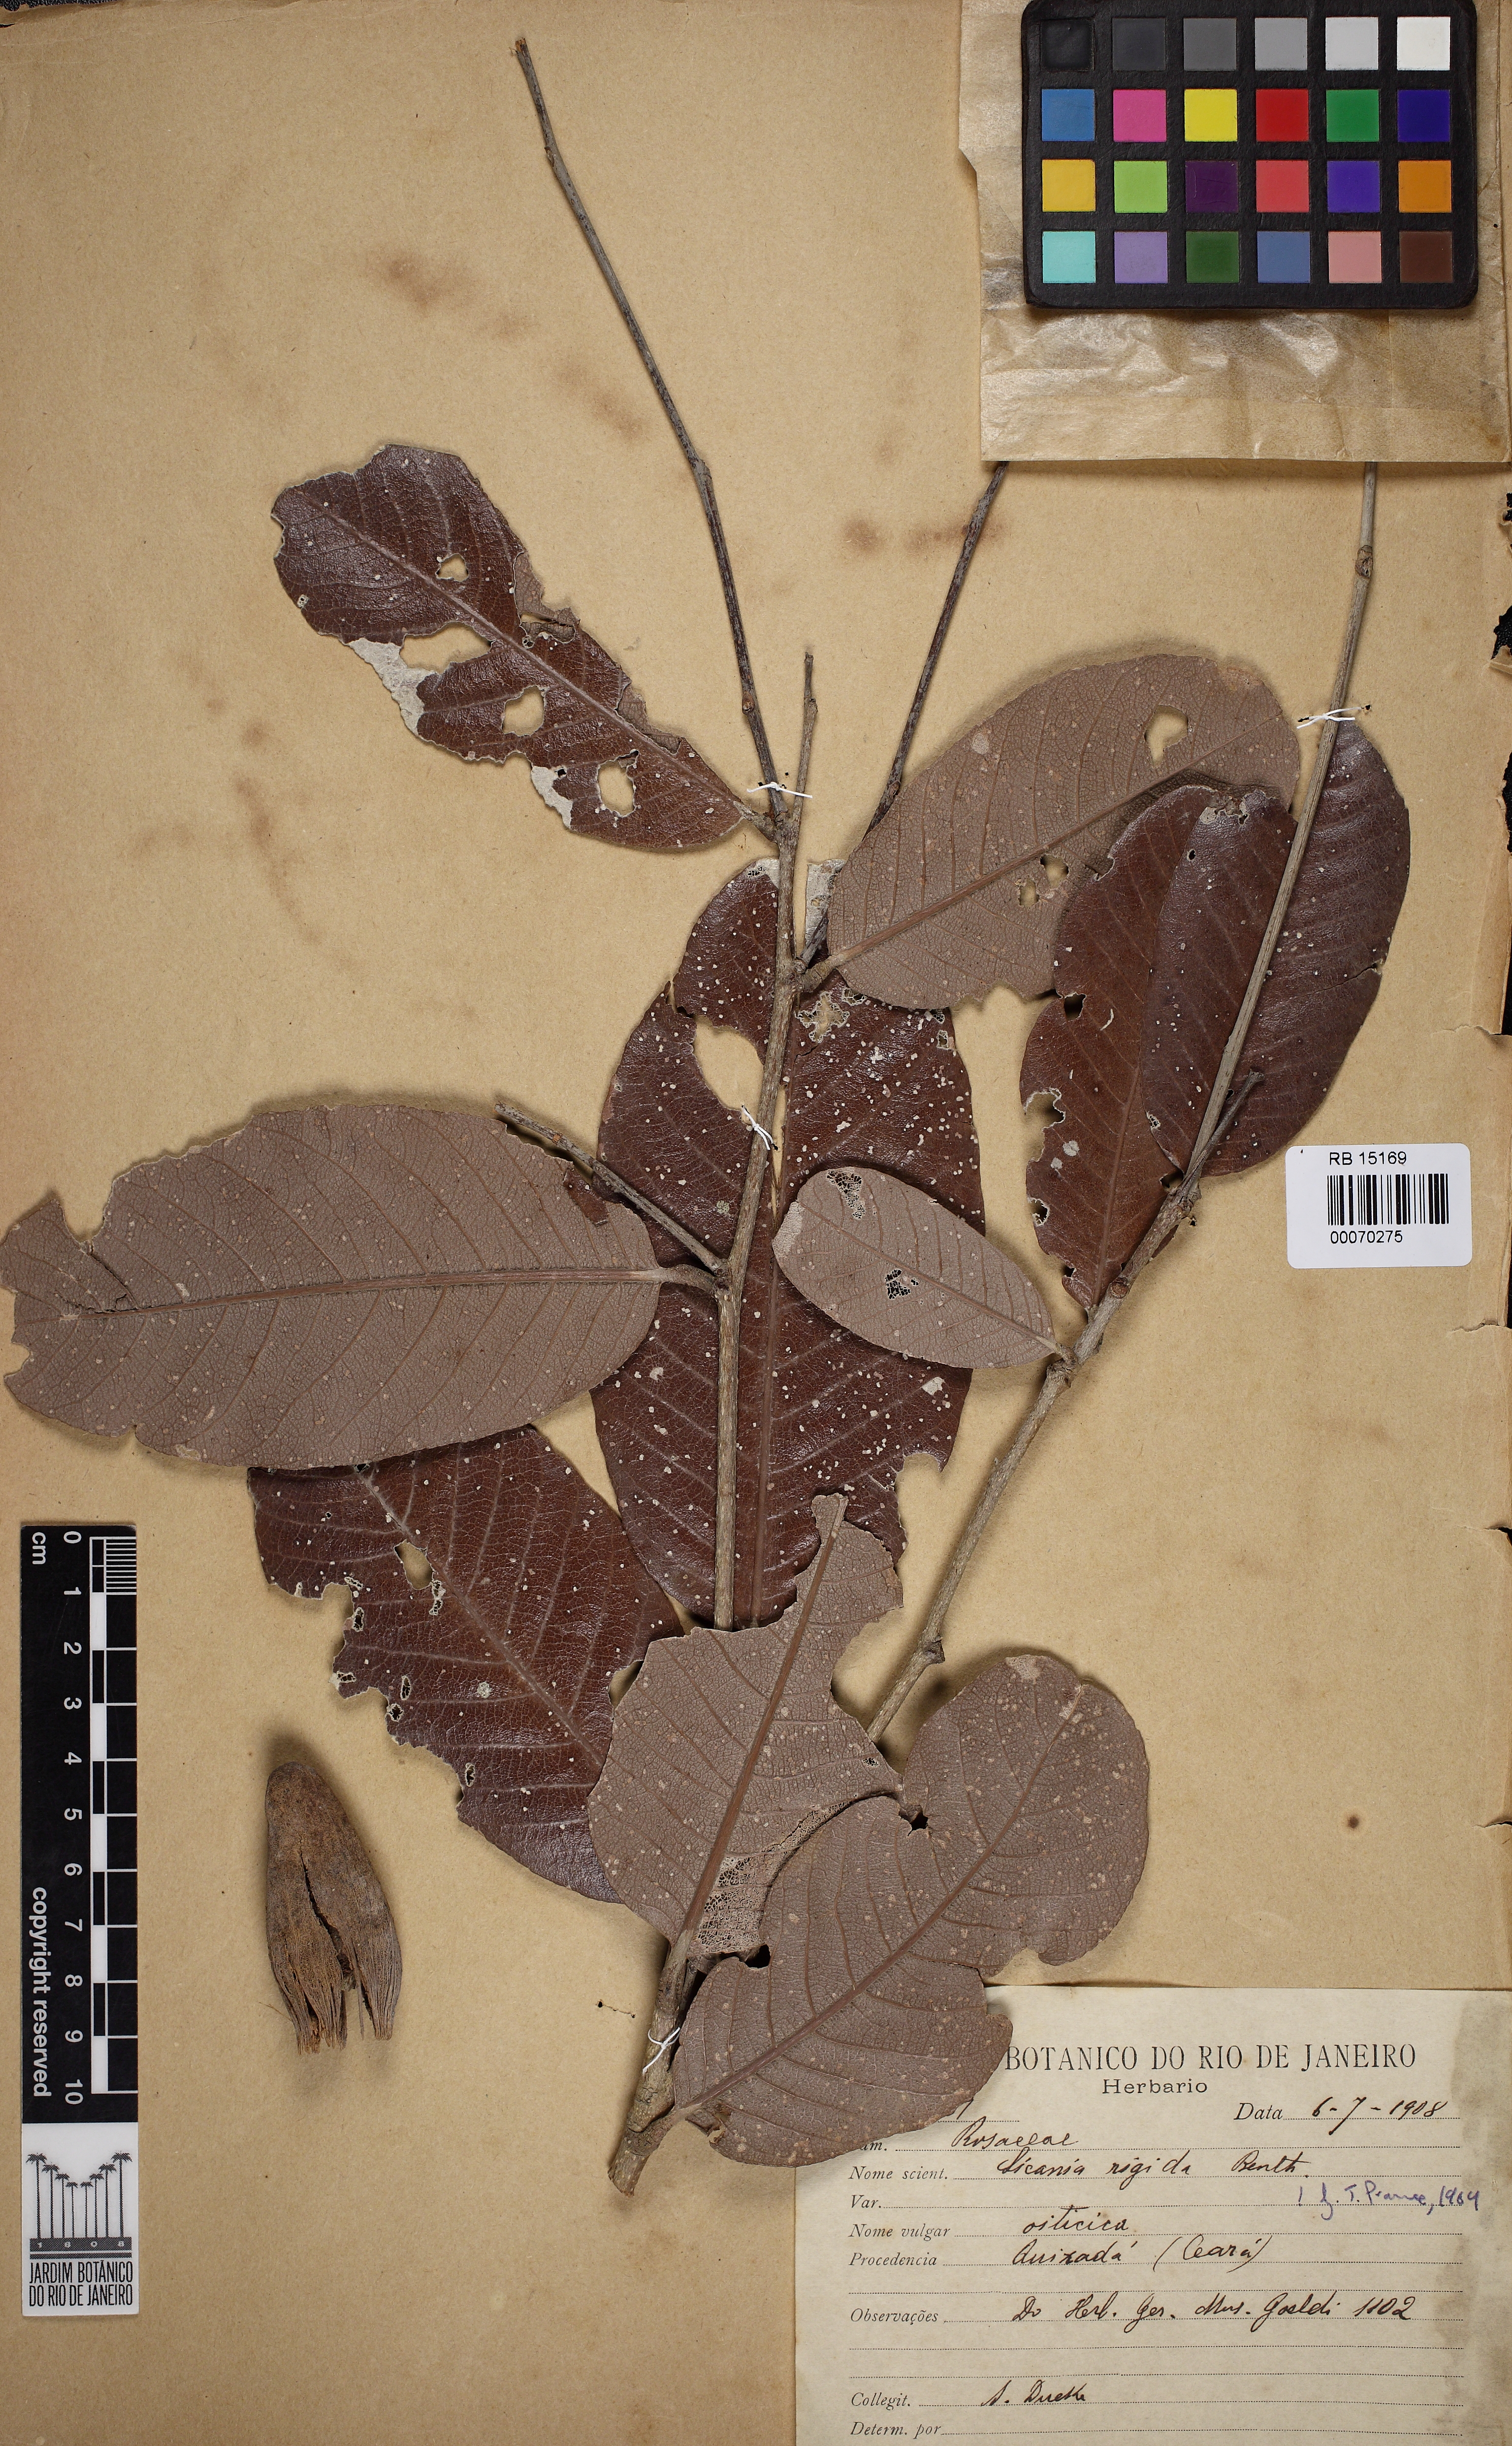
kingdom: Plantae
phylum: Tracheophyta
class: Magnoliopsida
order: Malpighiales
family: Chrysobalanaceae
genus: Microdesmia
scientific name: Microdesmia rigida
